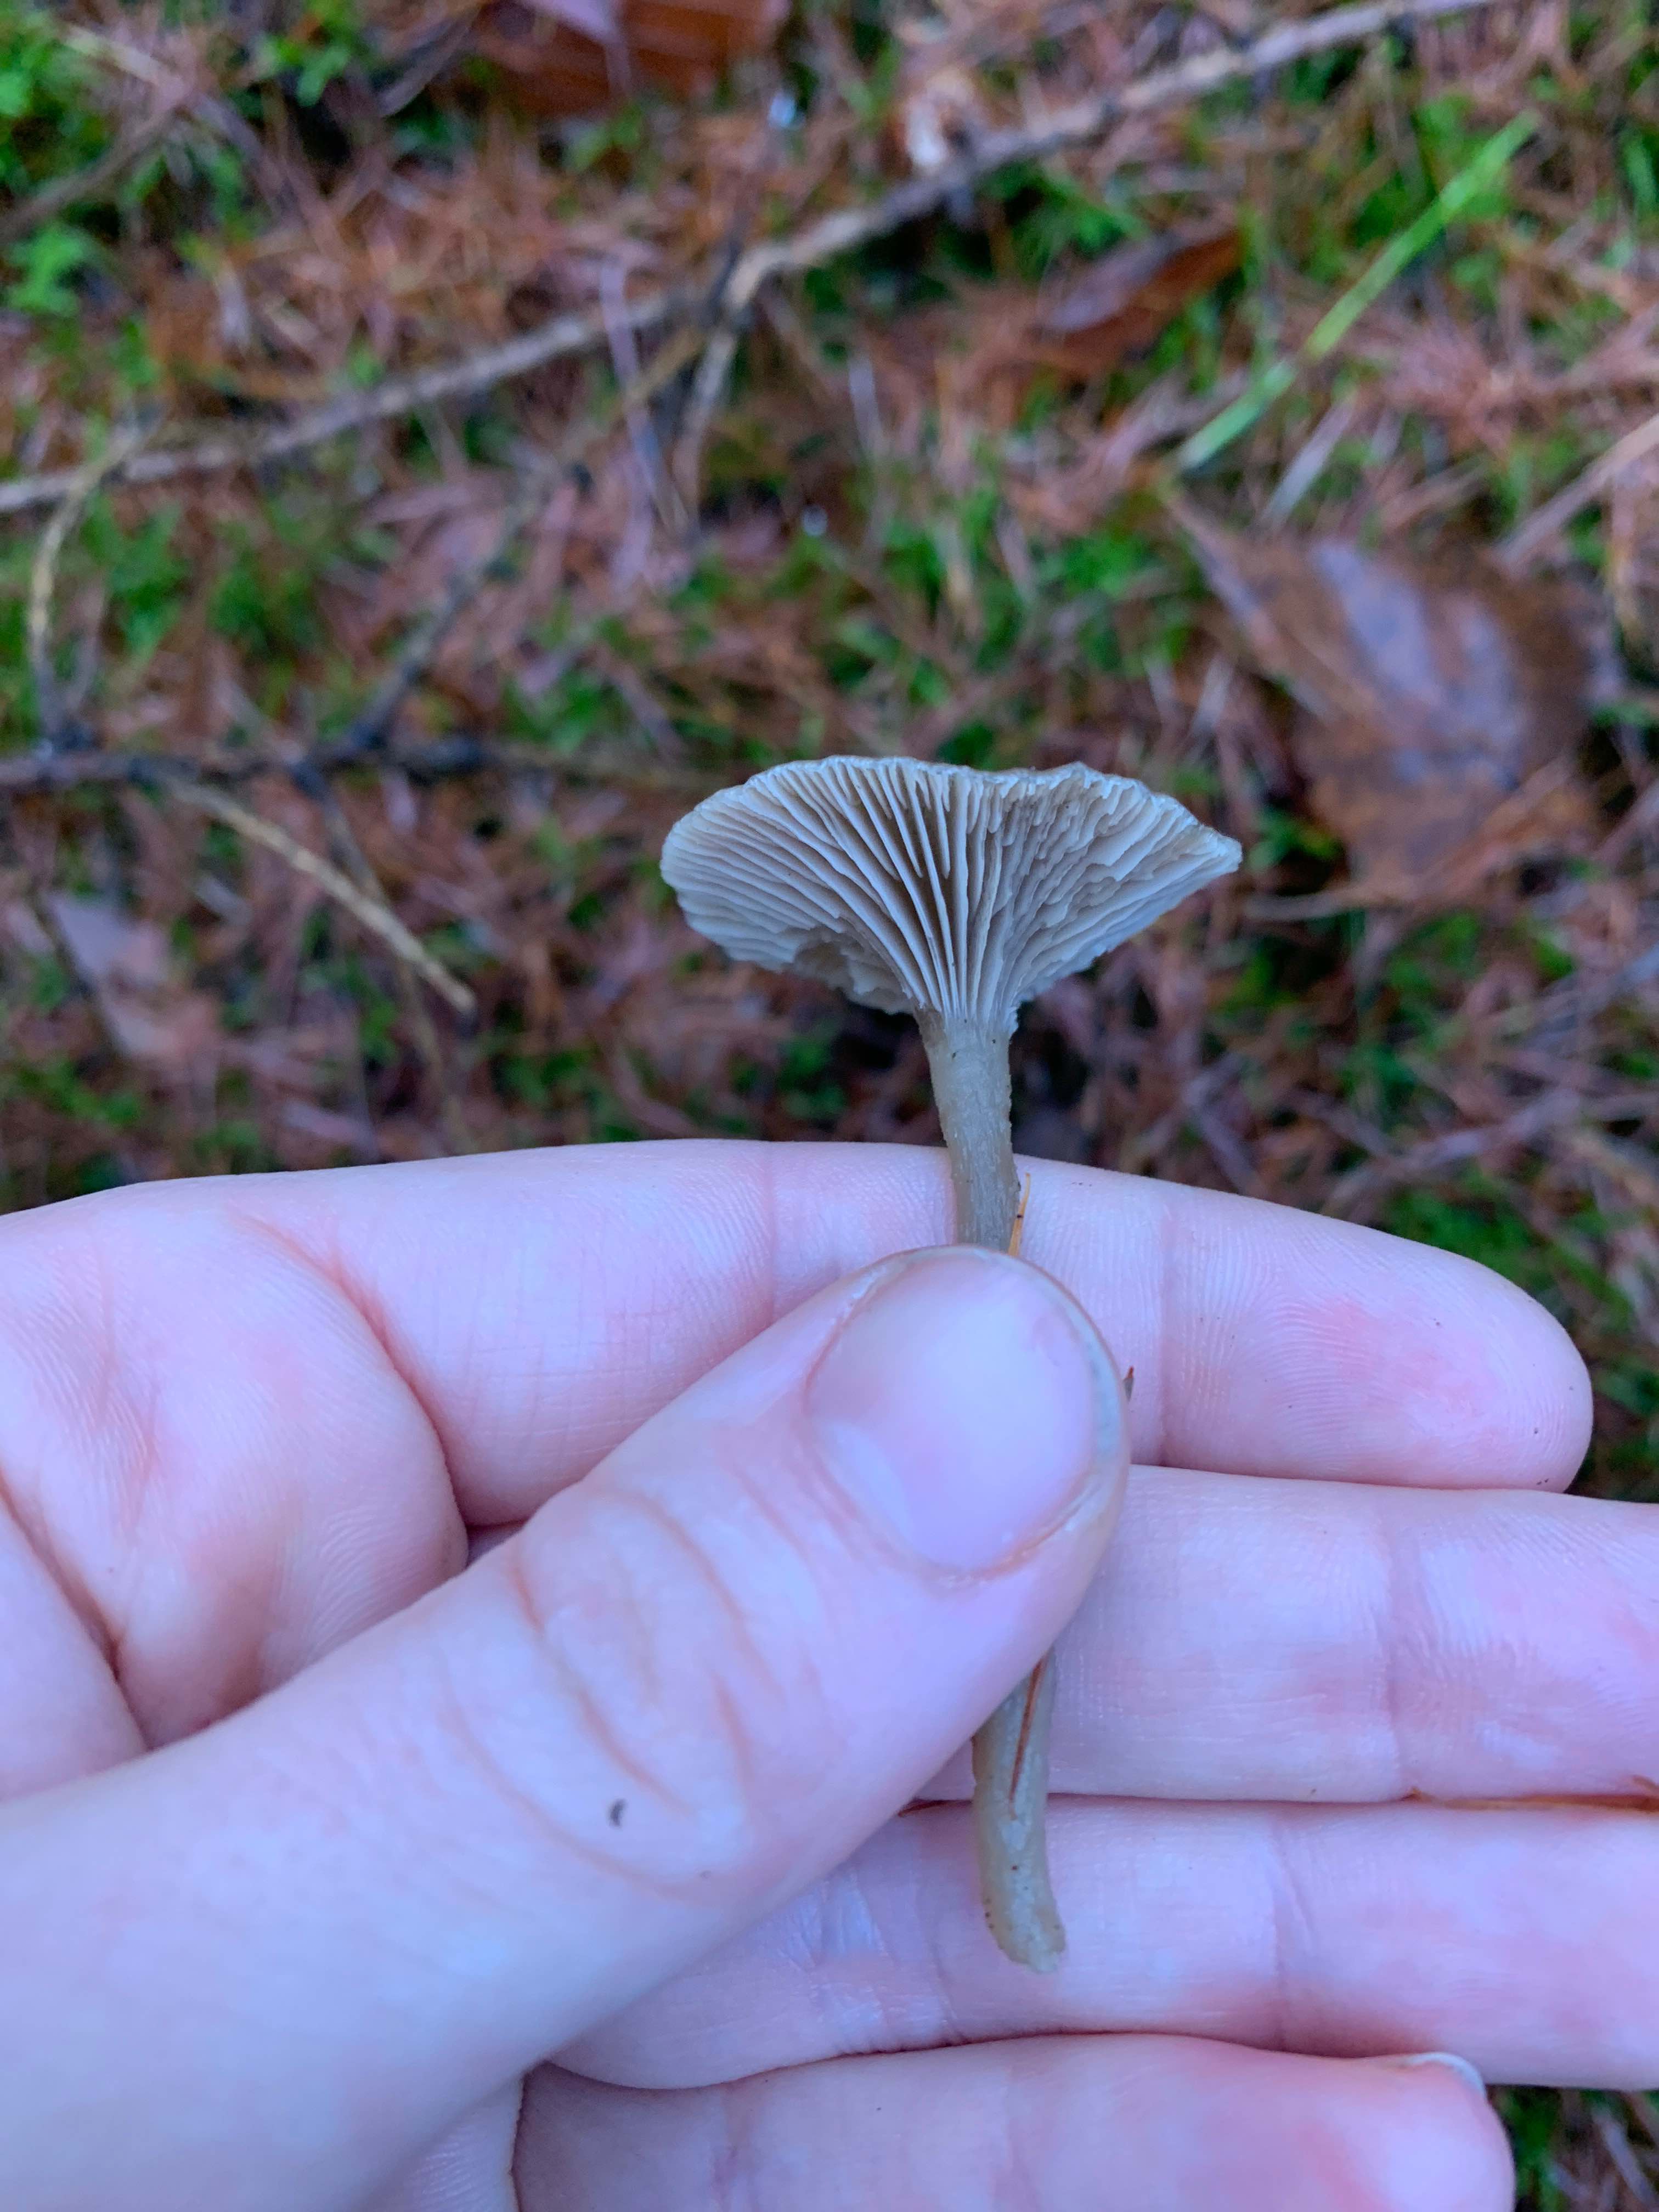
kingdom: Fungi
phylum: Basidiomycota
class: Agaricomycetes
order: Agaricales
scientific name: Agaricales
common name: champignonordenen
